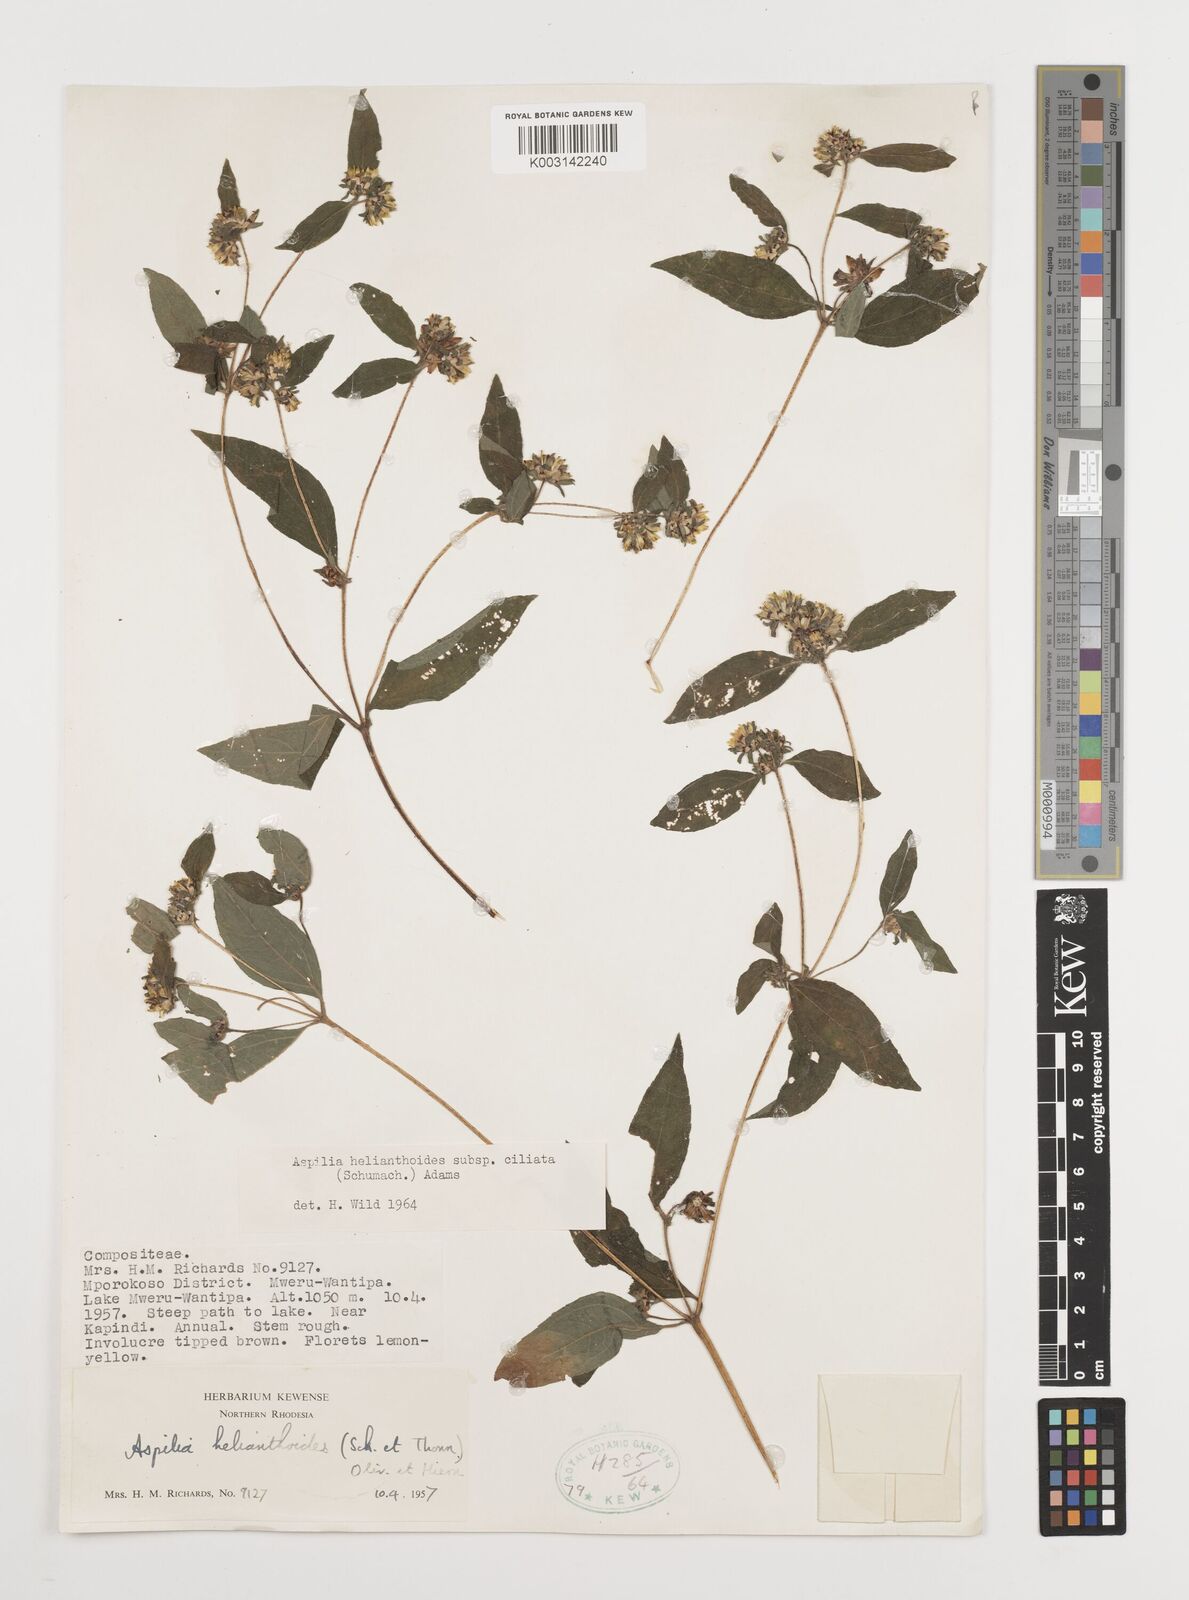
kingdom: Plantae
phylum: Tracheophyta
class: Magnoliopsida
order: Asterales
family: Asteraceae
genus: Aspilia
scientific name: Aspilia ciliata
